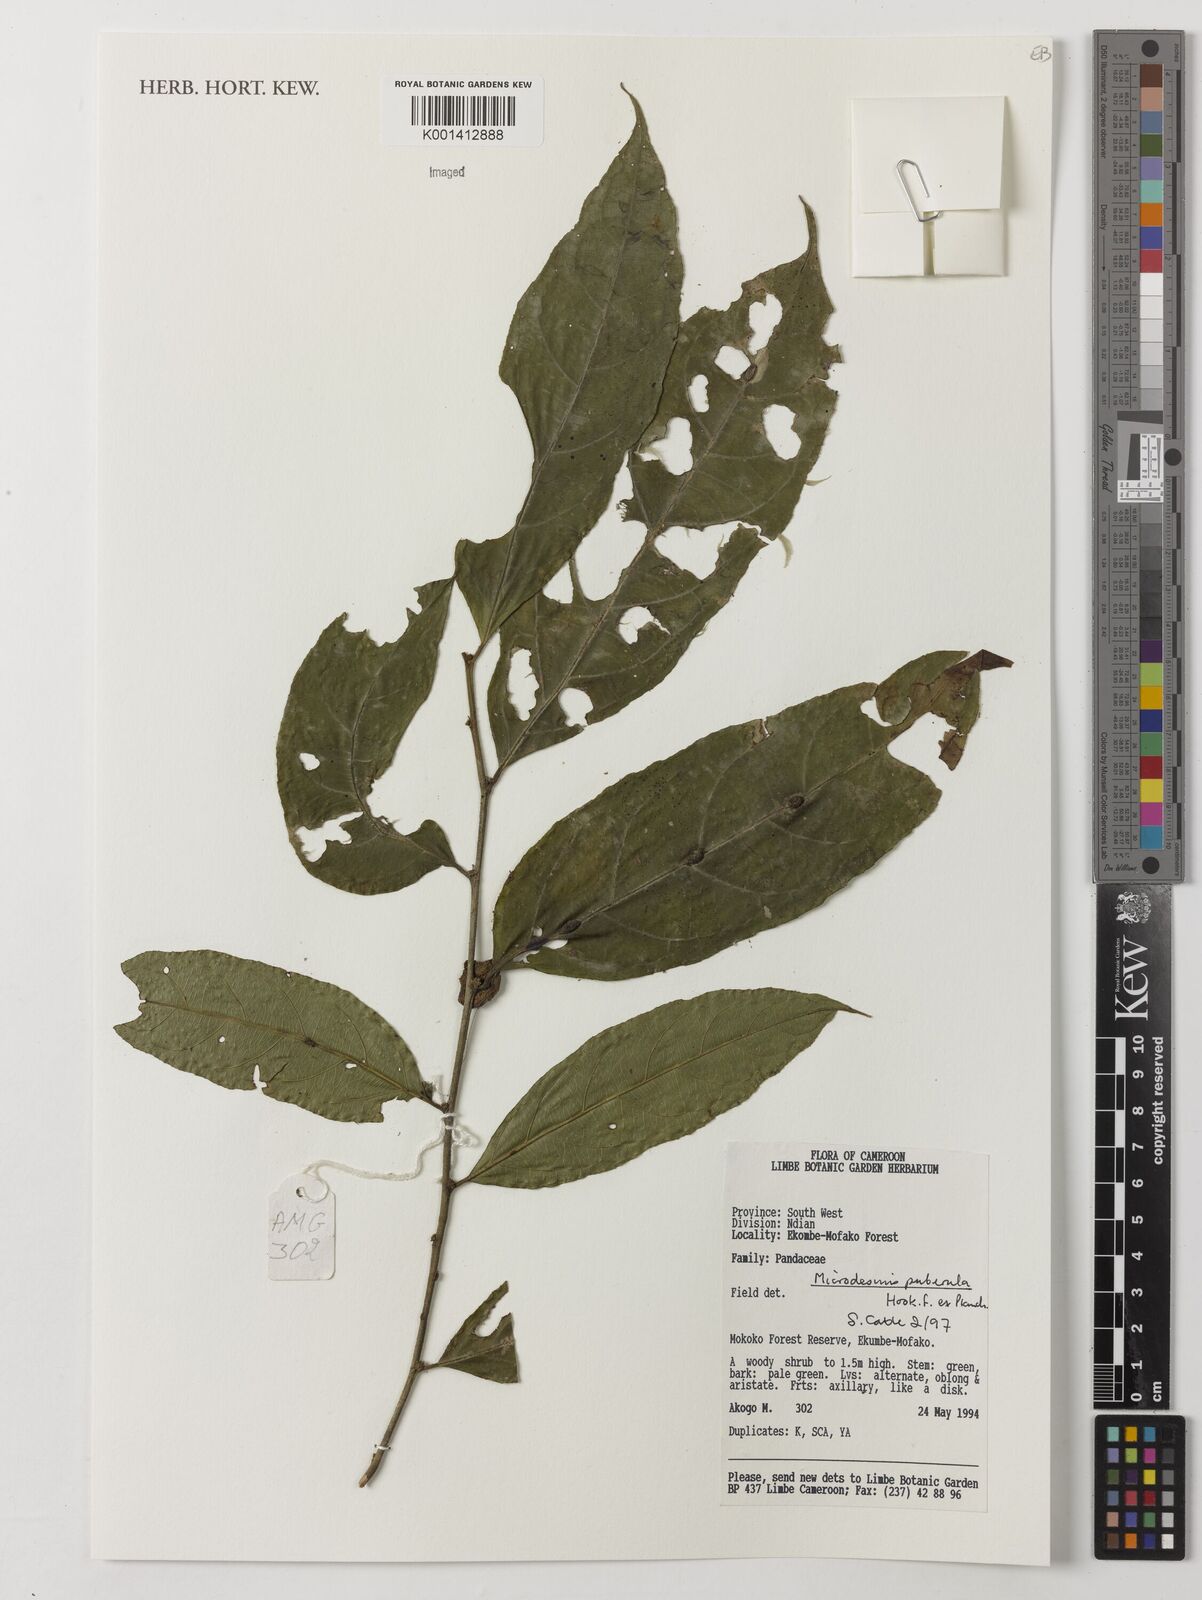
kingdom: Plantae
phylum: Tracheophyta
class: Magnoliopsida
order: Malpighiales
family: Pandaceae
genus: Microdesmis
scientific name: Microdesmis puberula
